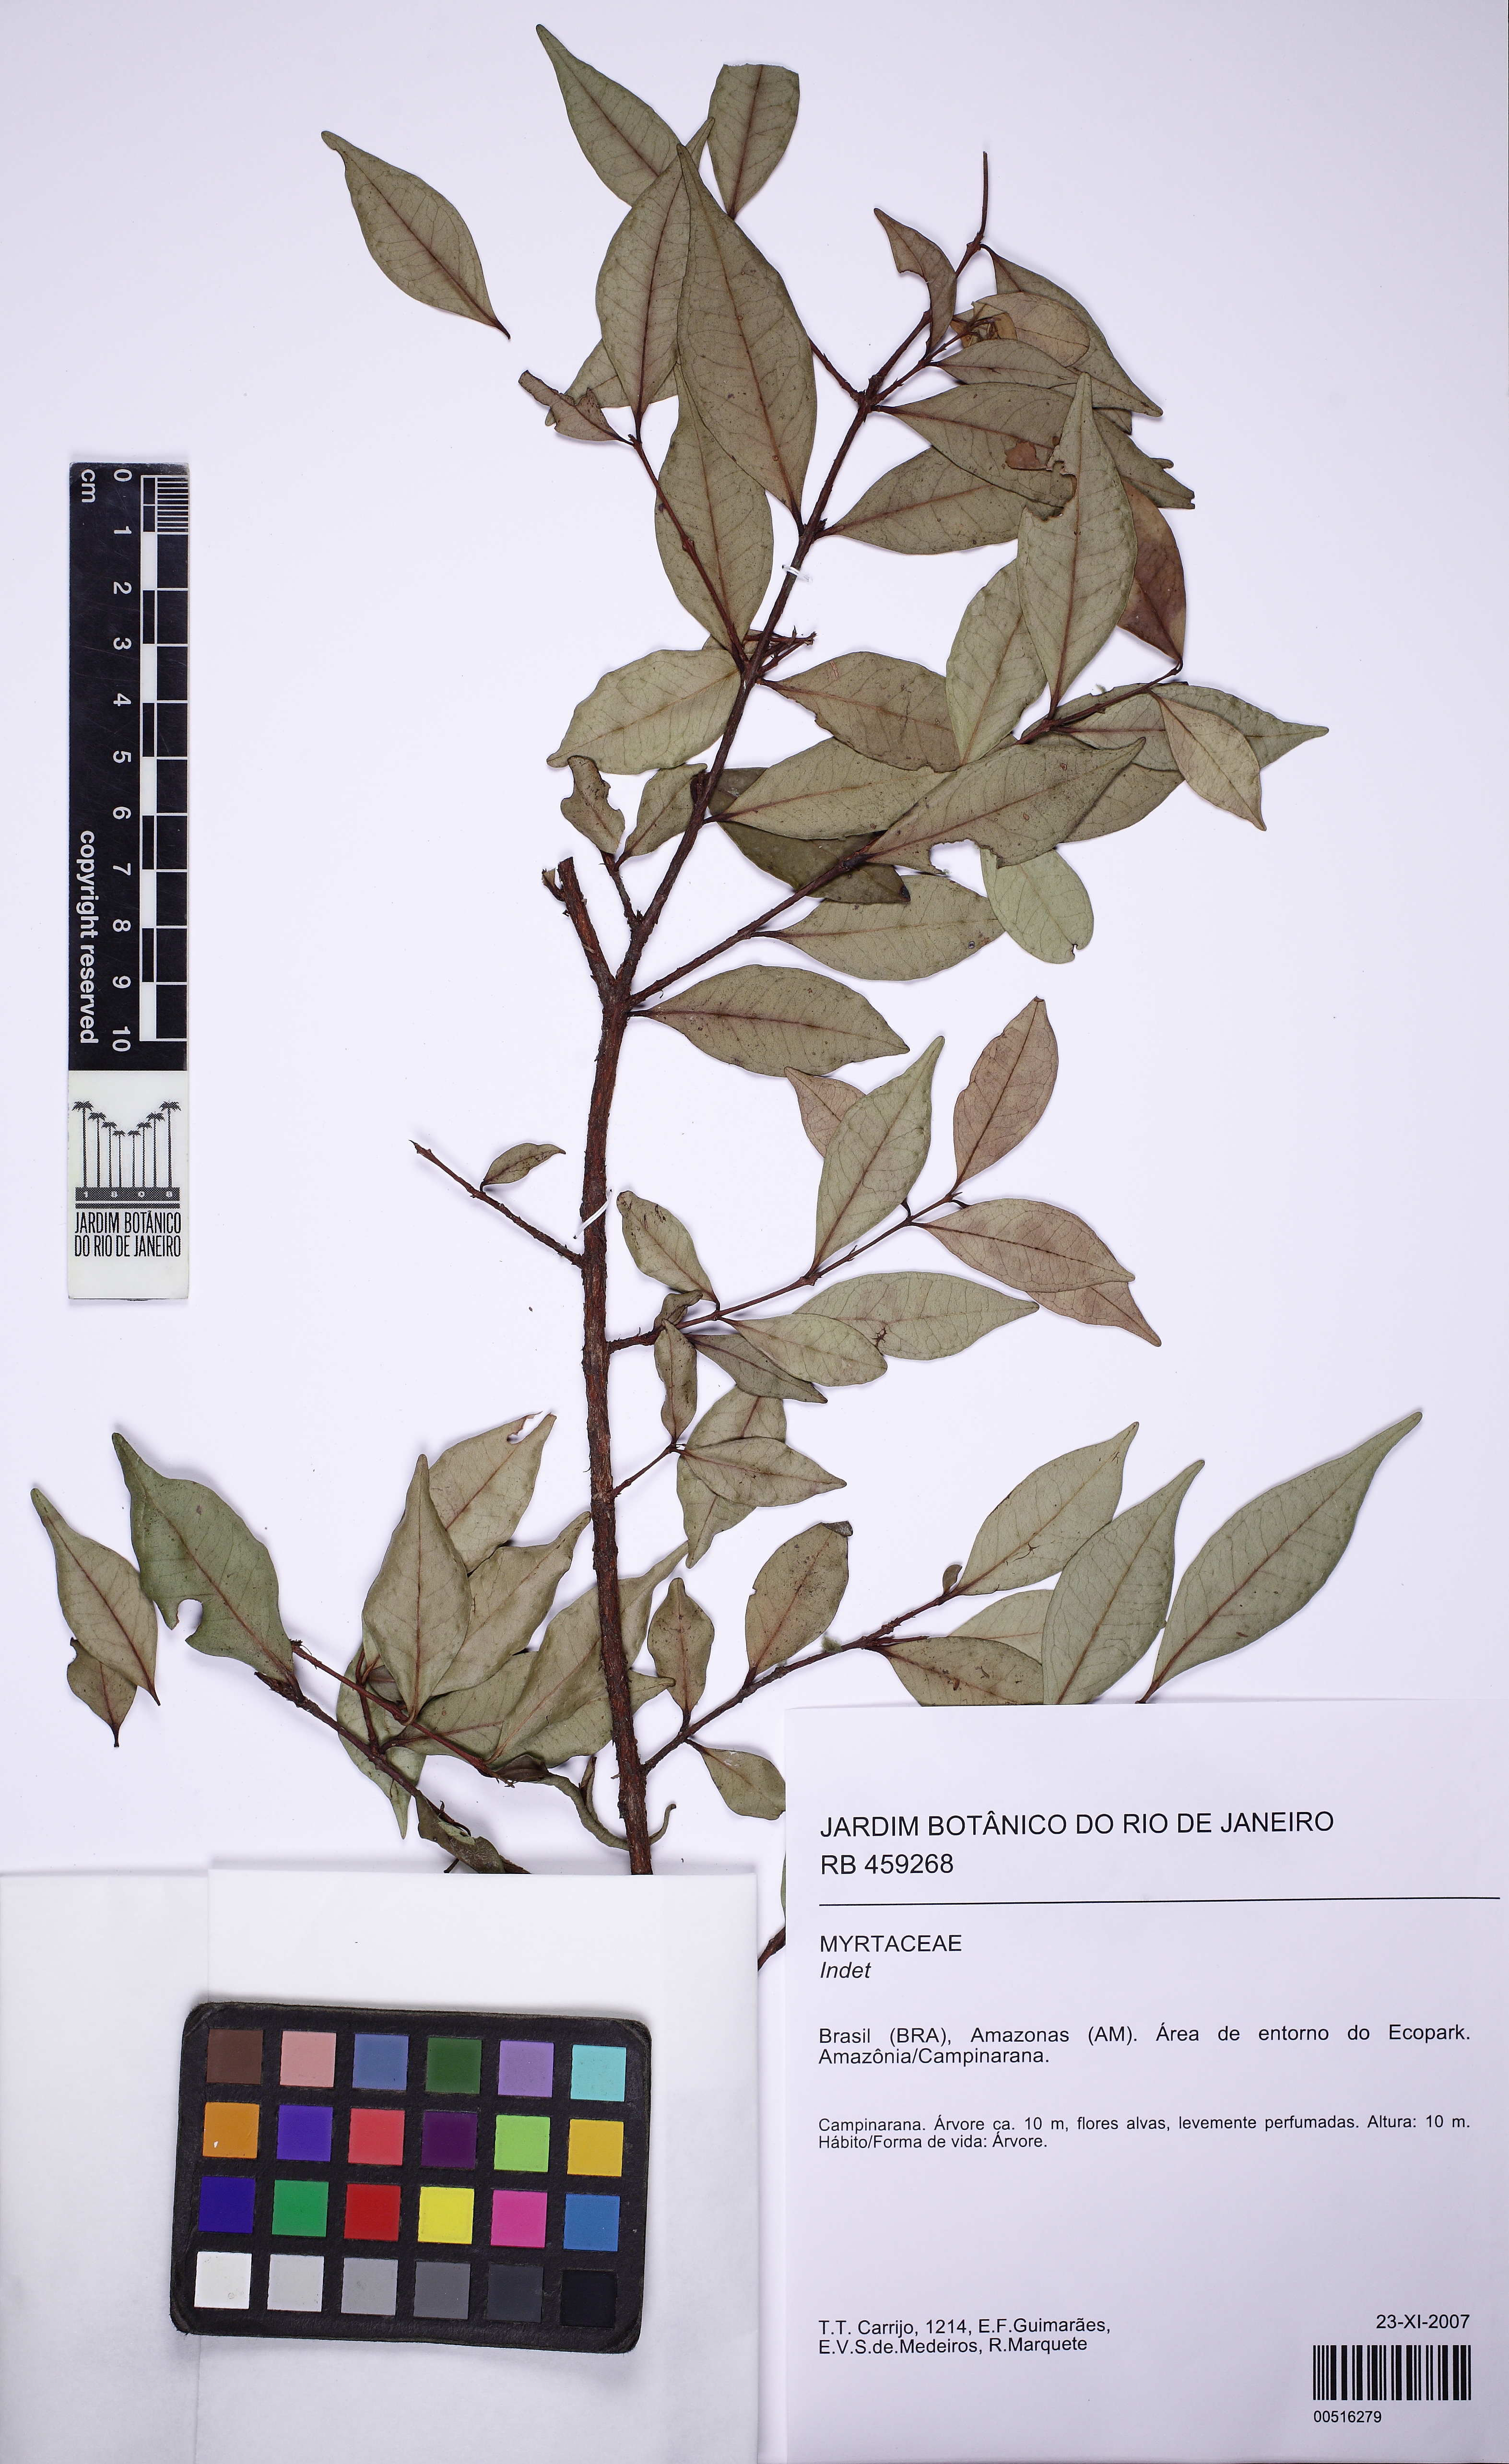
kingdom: Plantae
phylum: Tracheophyta
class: Magnoliopsida
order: Myrtales
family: Myrtaceae
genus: Eugenia
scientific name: Eugenia patrisii
